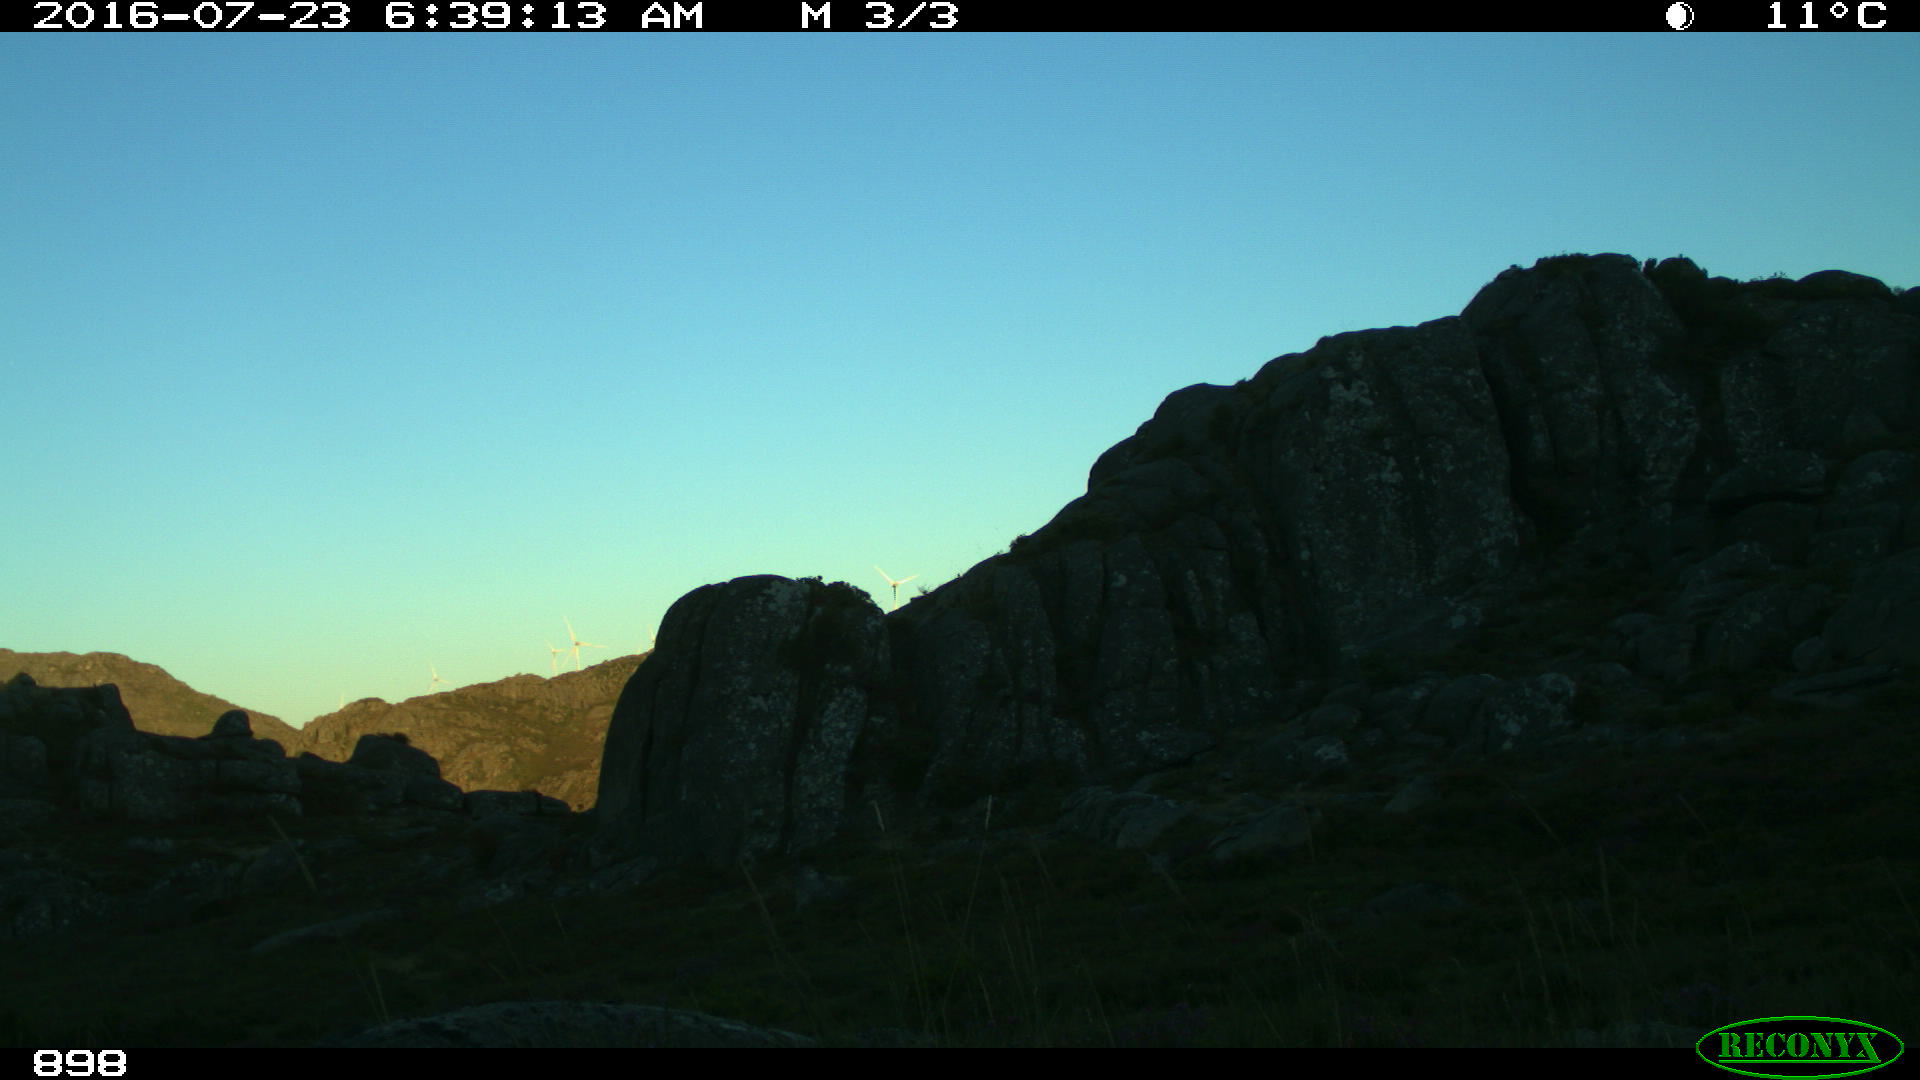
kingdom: Animalia
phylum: Chordata
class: Mammalia
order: Perissodactyla
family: Equidae
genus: Equus
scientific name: Equus caballus
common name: Horse
